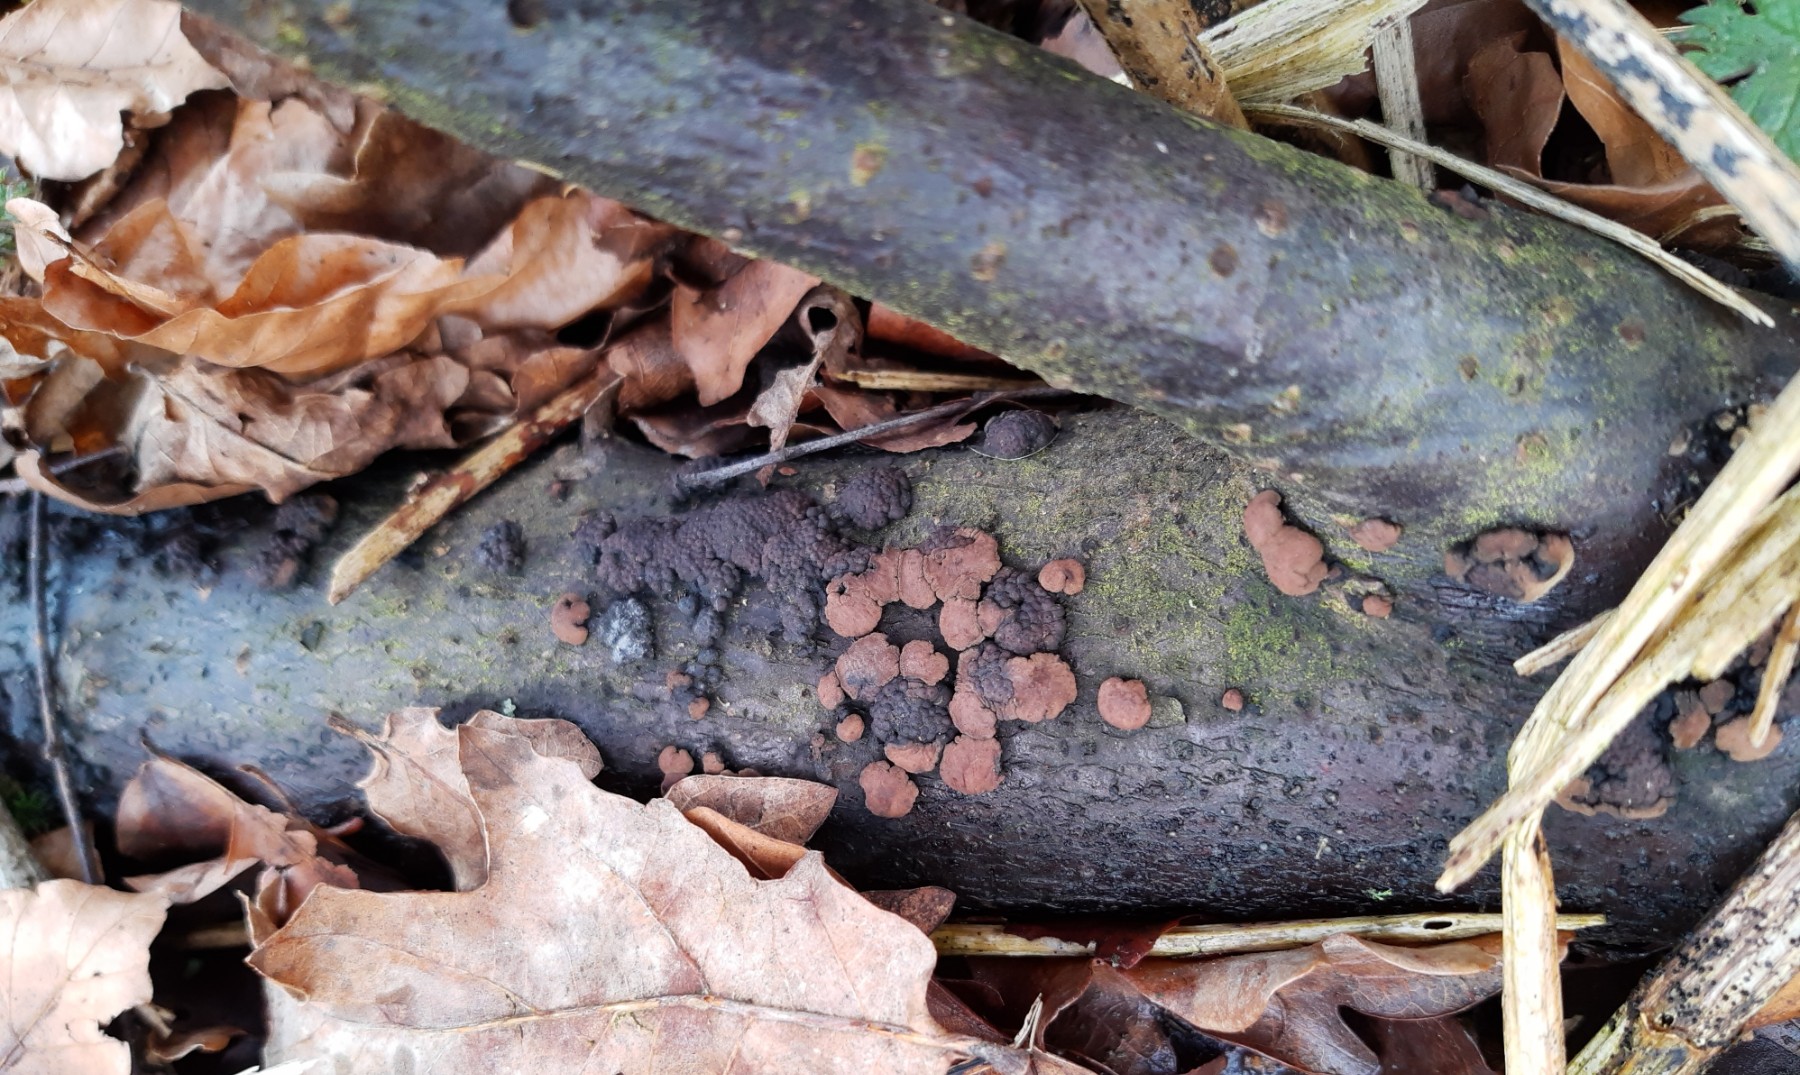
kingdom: Fungi
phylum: Ascomycota
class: Sordariomycetes
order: Xylariales
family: Hypoxylaceae
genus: Jackrogersella
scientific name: Jackrogersella cohaerens
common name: sammenflydende kulbær
